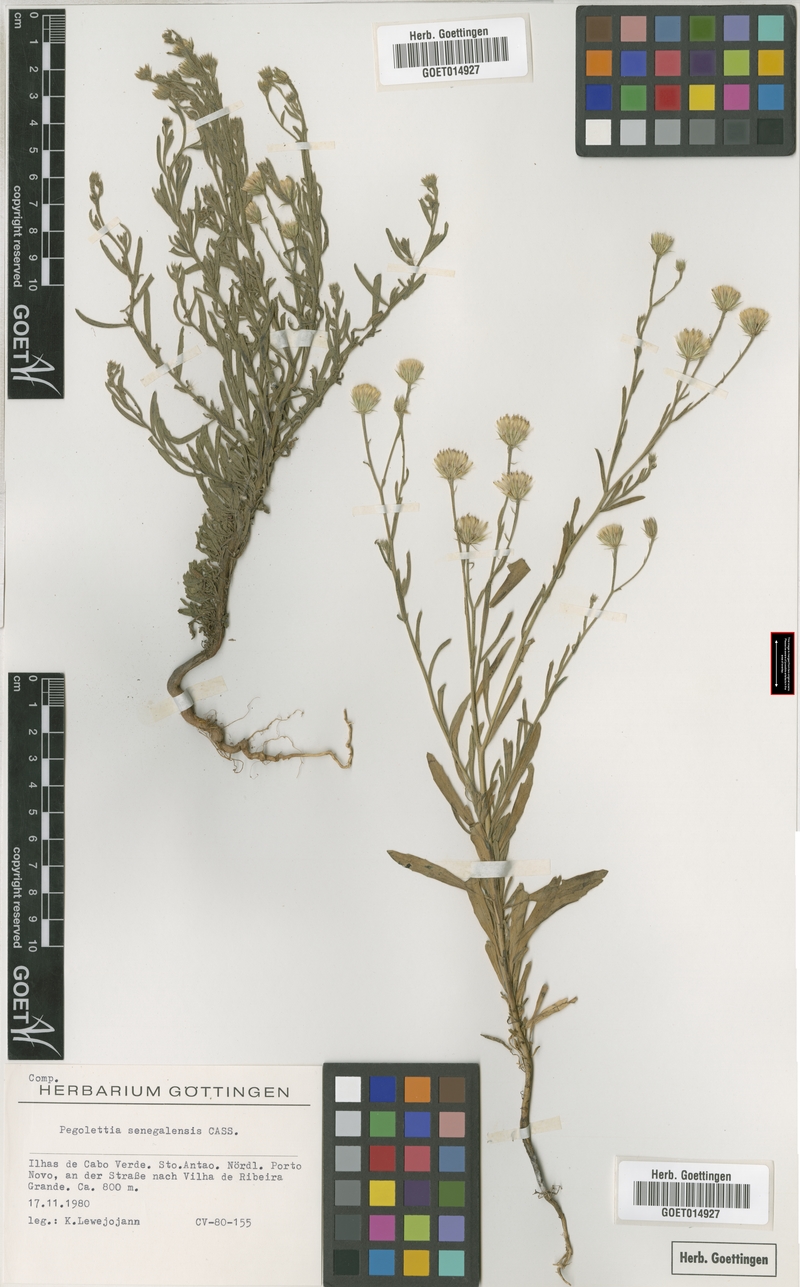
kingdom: Plantae
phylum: Tracheophyta
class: Magnoliopsida
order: Asterales
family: Asteraceae
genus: Pegolettia
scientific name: Pegolettia senegalensis
